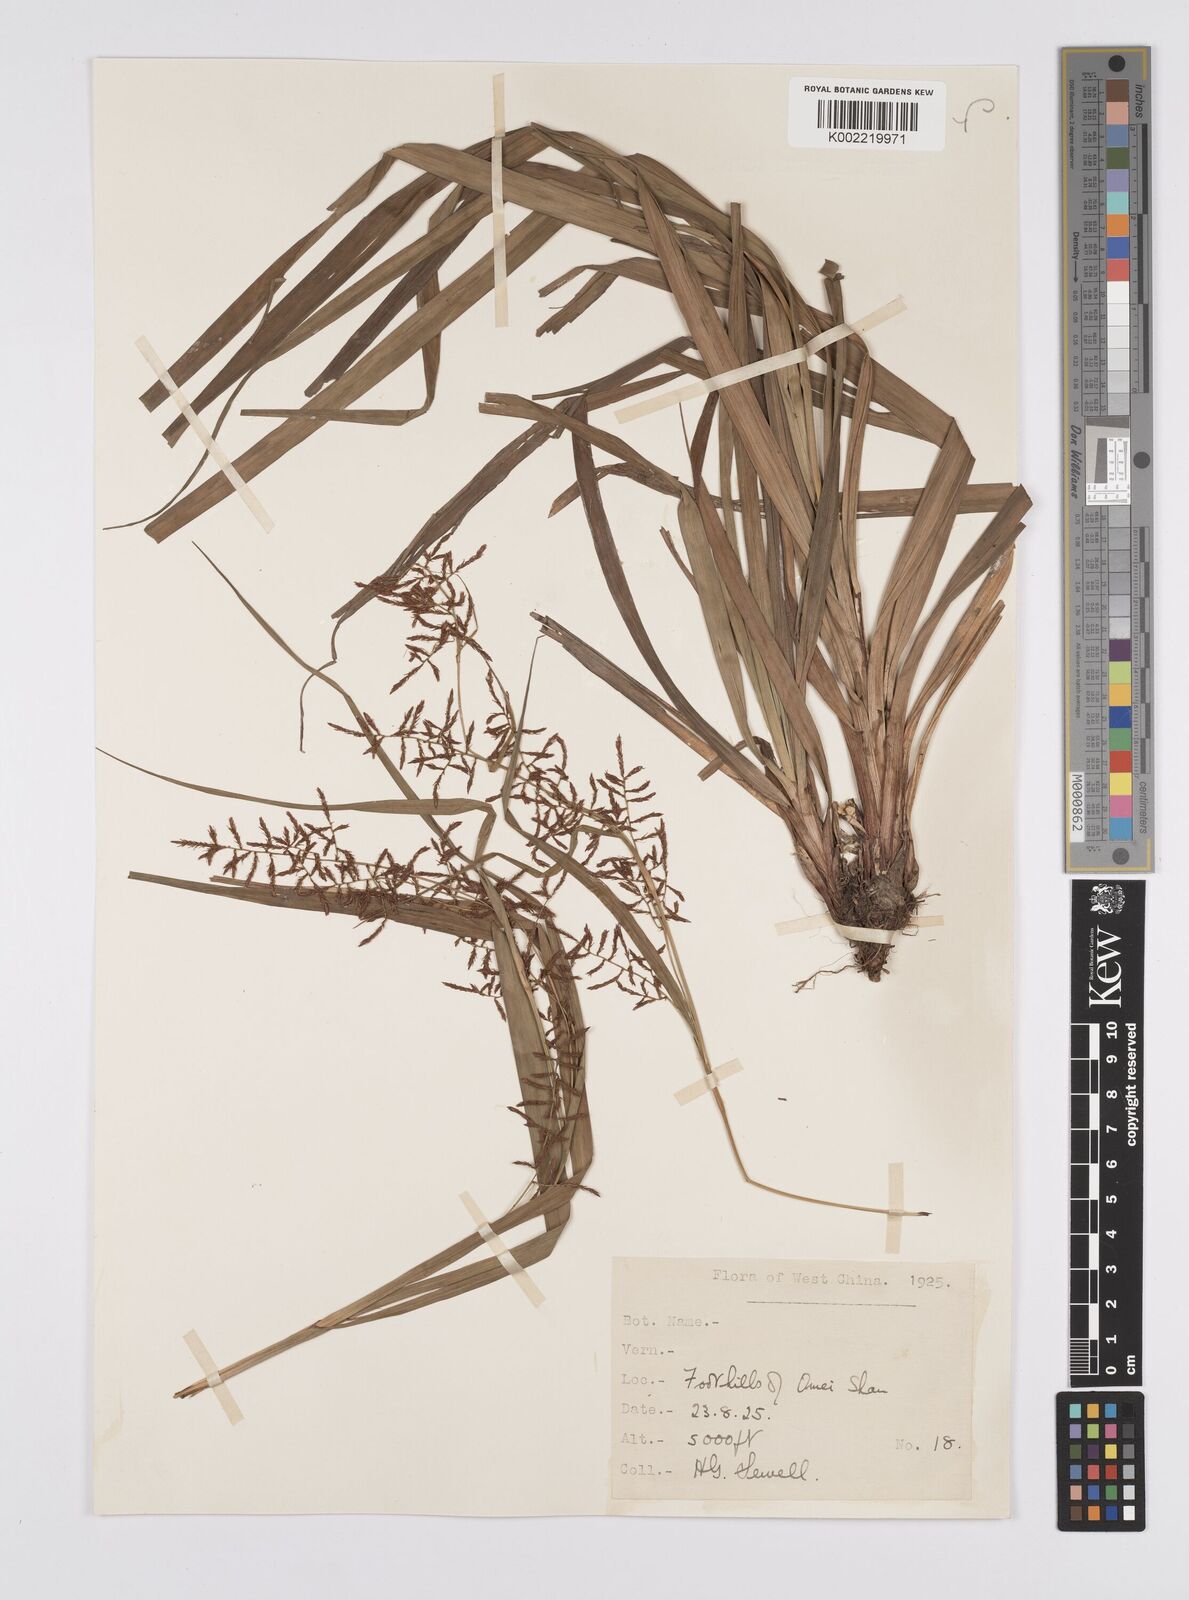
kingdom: Plantae
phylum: Tracheophyta
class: Liliopsida
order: Poales
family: Cyperaceae
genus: Carex
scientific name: Carex filicina
